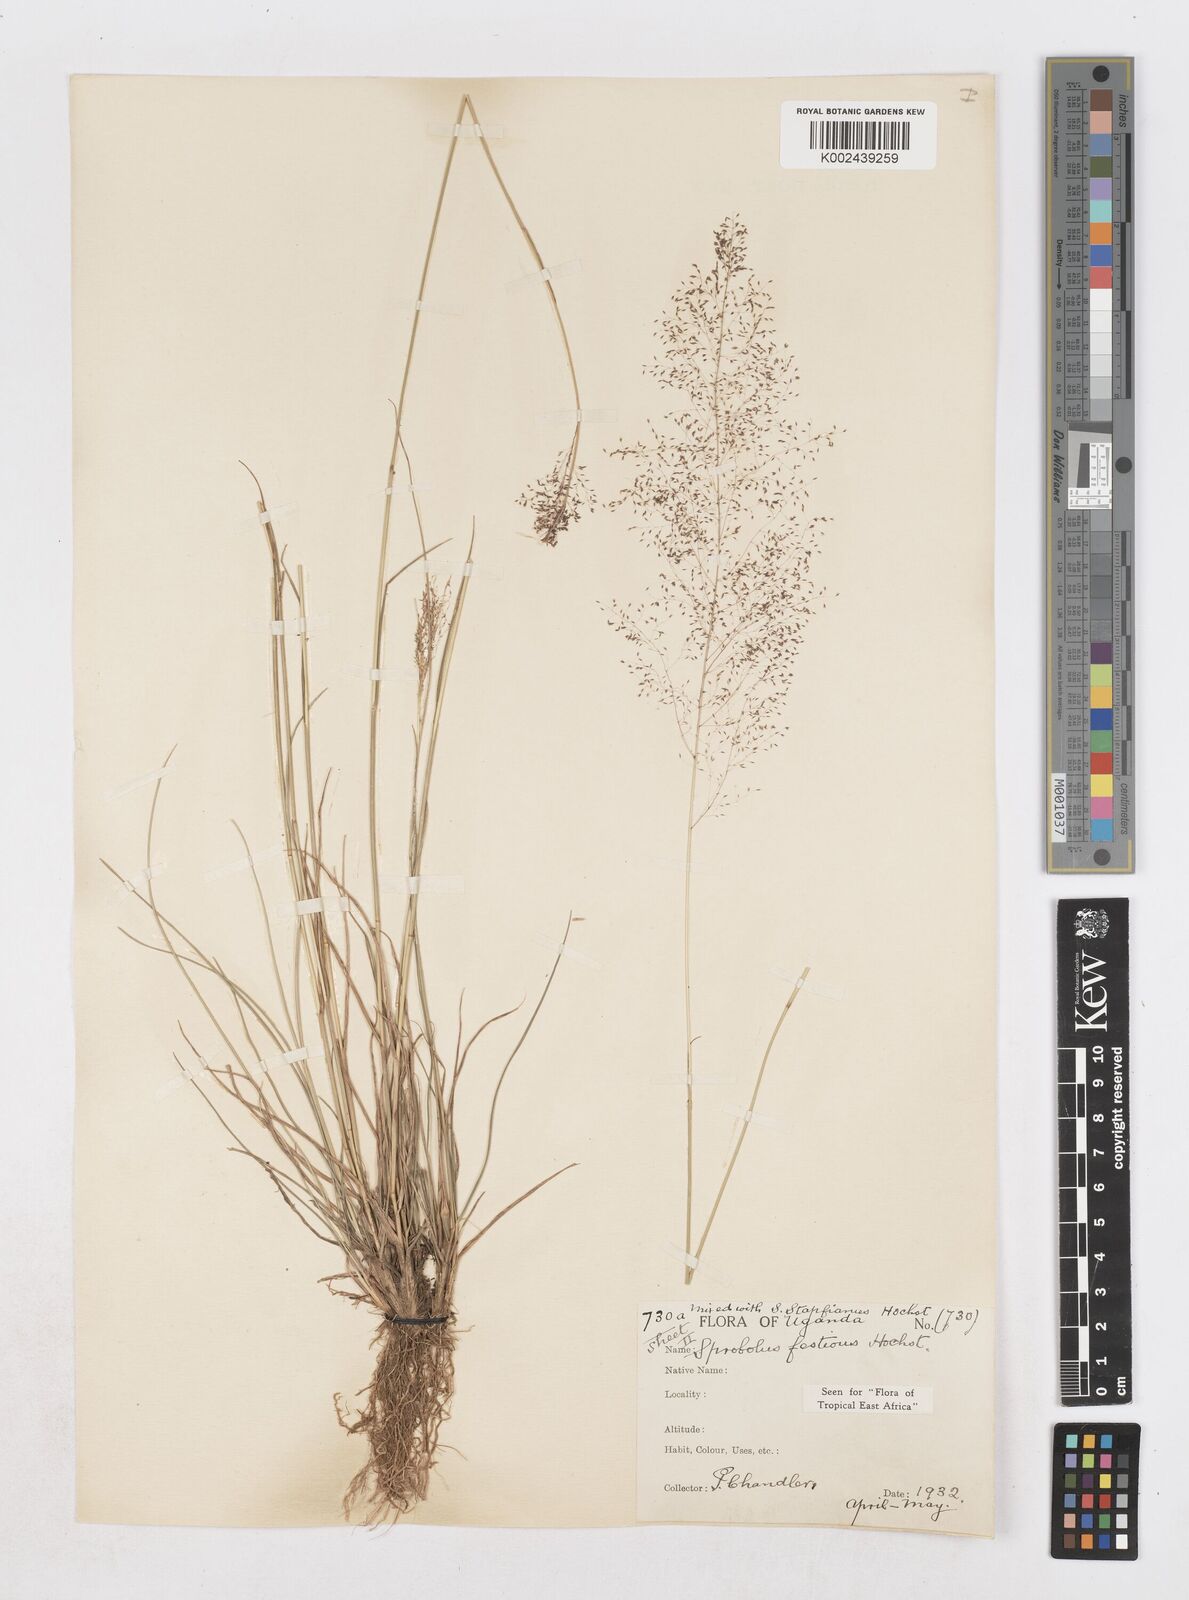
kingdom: Plantae
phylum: Tracheophyta
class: Liliopsida
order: Poales
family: Poaceae
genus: Sporobolus
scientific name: Sporobolus festivus
